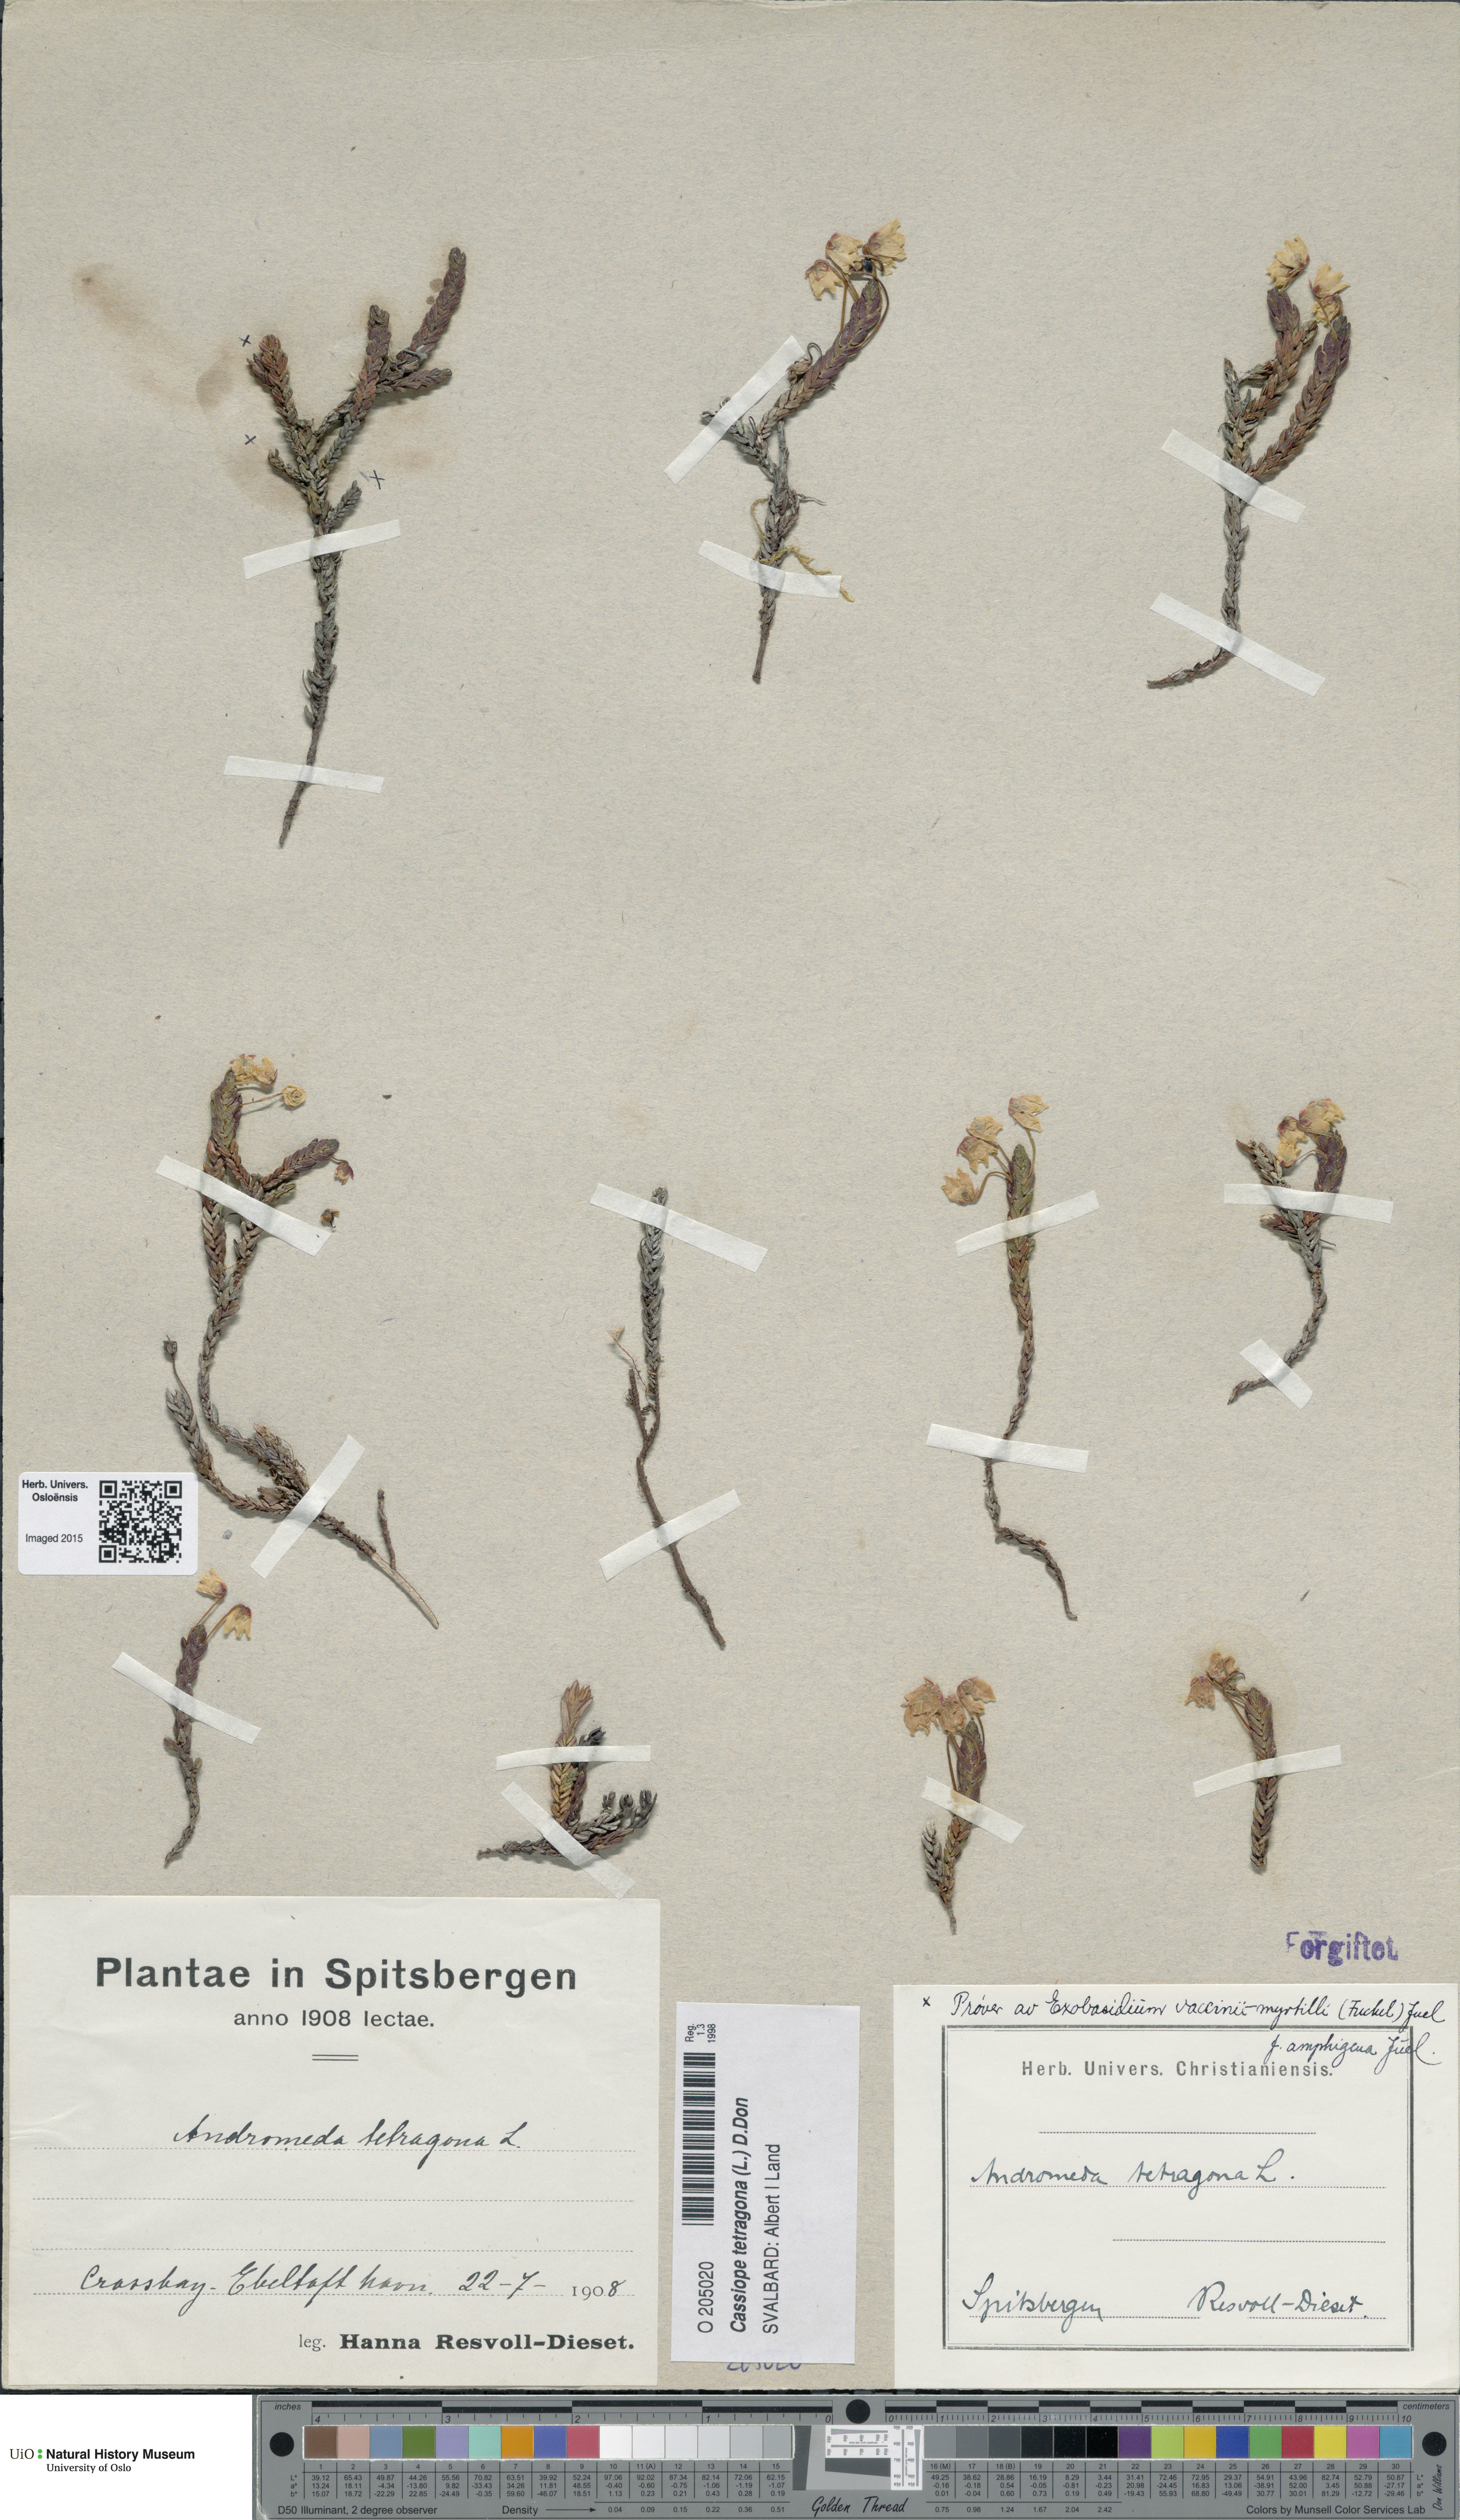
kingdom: Plantae
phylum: Tracheophyta
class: Magnoliopsida
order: Ericales
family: Ericaceae
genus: Cassiope
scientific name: Cassiope tetragona
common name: Arctic bell heather
